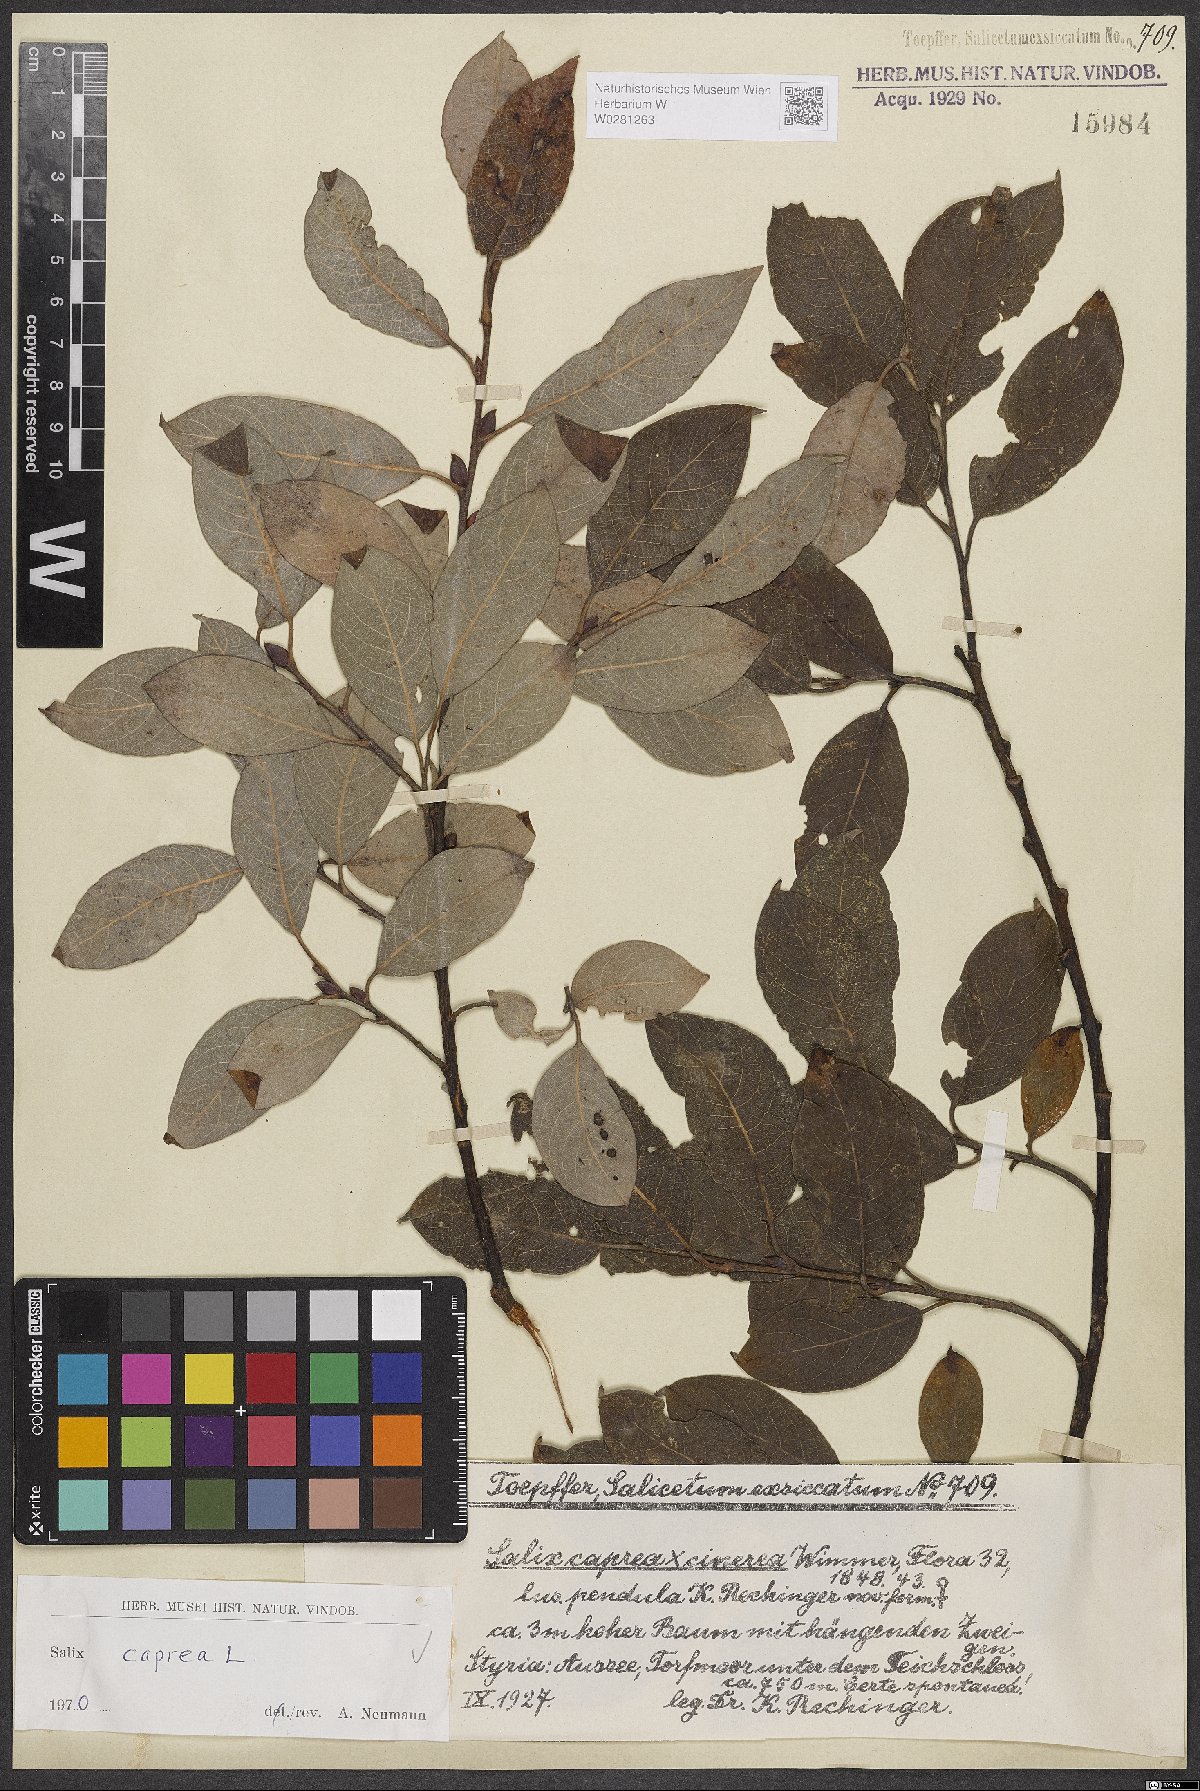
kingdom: Plantae
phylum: Tracheophyta
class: Magnoliopsida
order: Malpighiales
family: Salicaceae
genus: Salix
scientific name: Salix caprea
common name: Goat willow
